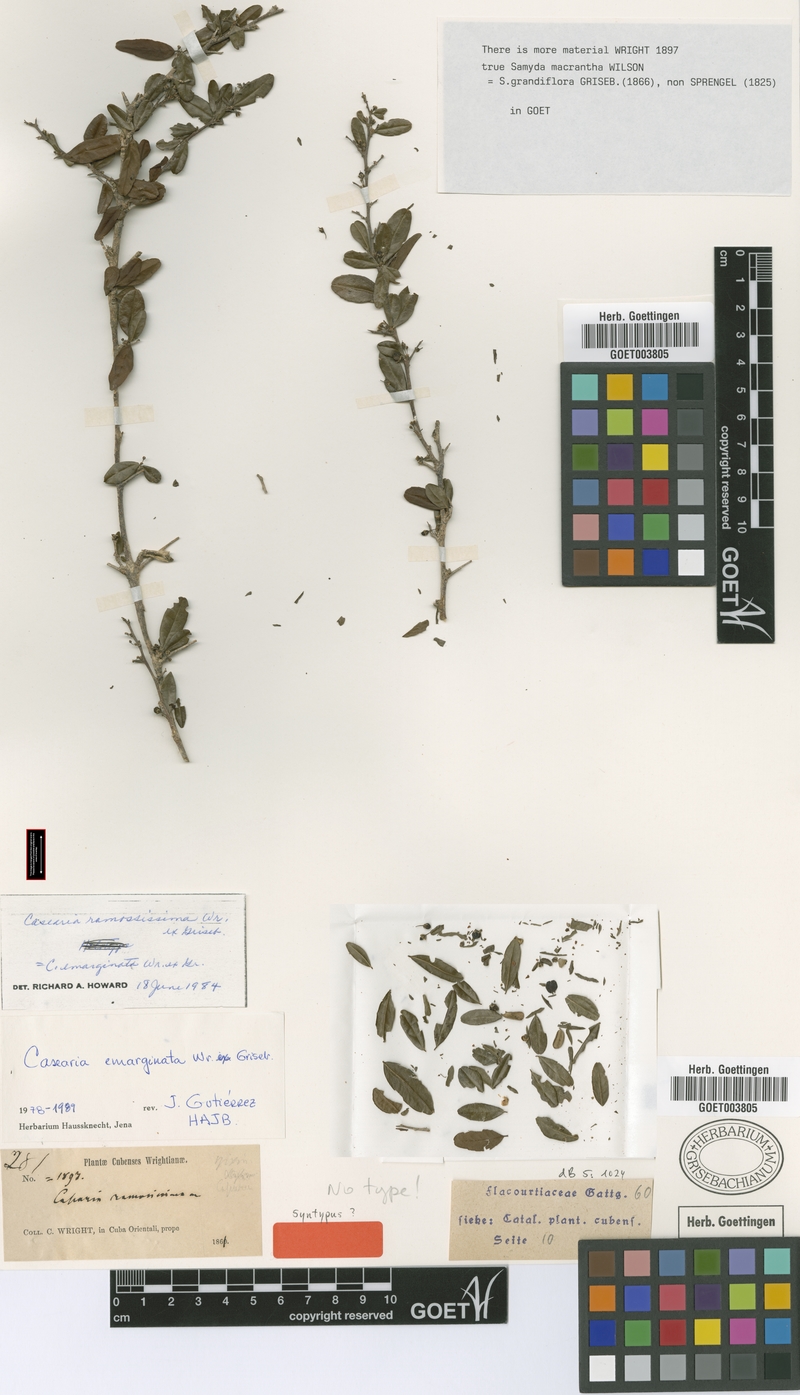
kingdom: Plantae
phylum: Tracheophyta
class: Magnoliopsida
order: Malpighiales
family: Salicaceae
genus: Casearia
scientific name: Casearia emarginata
